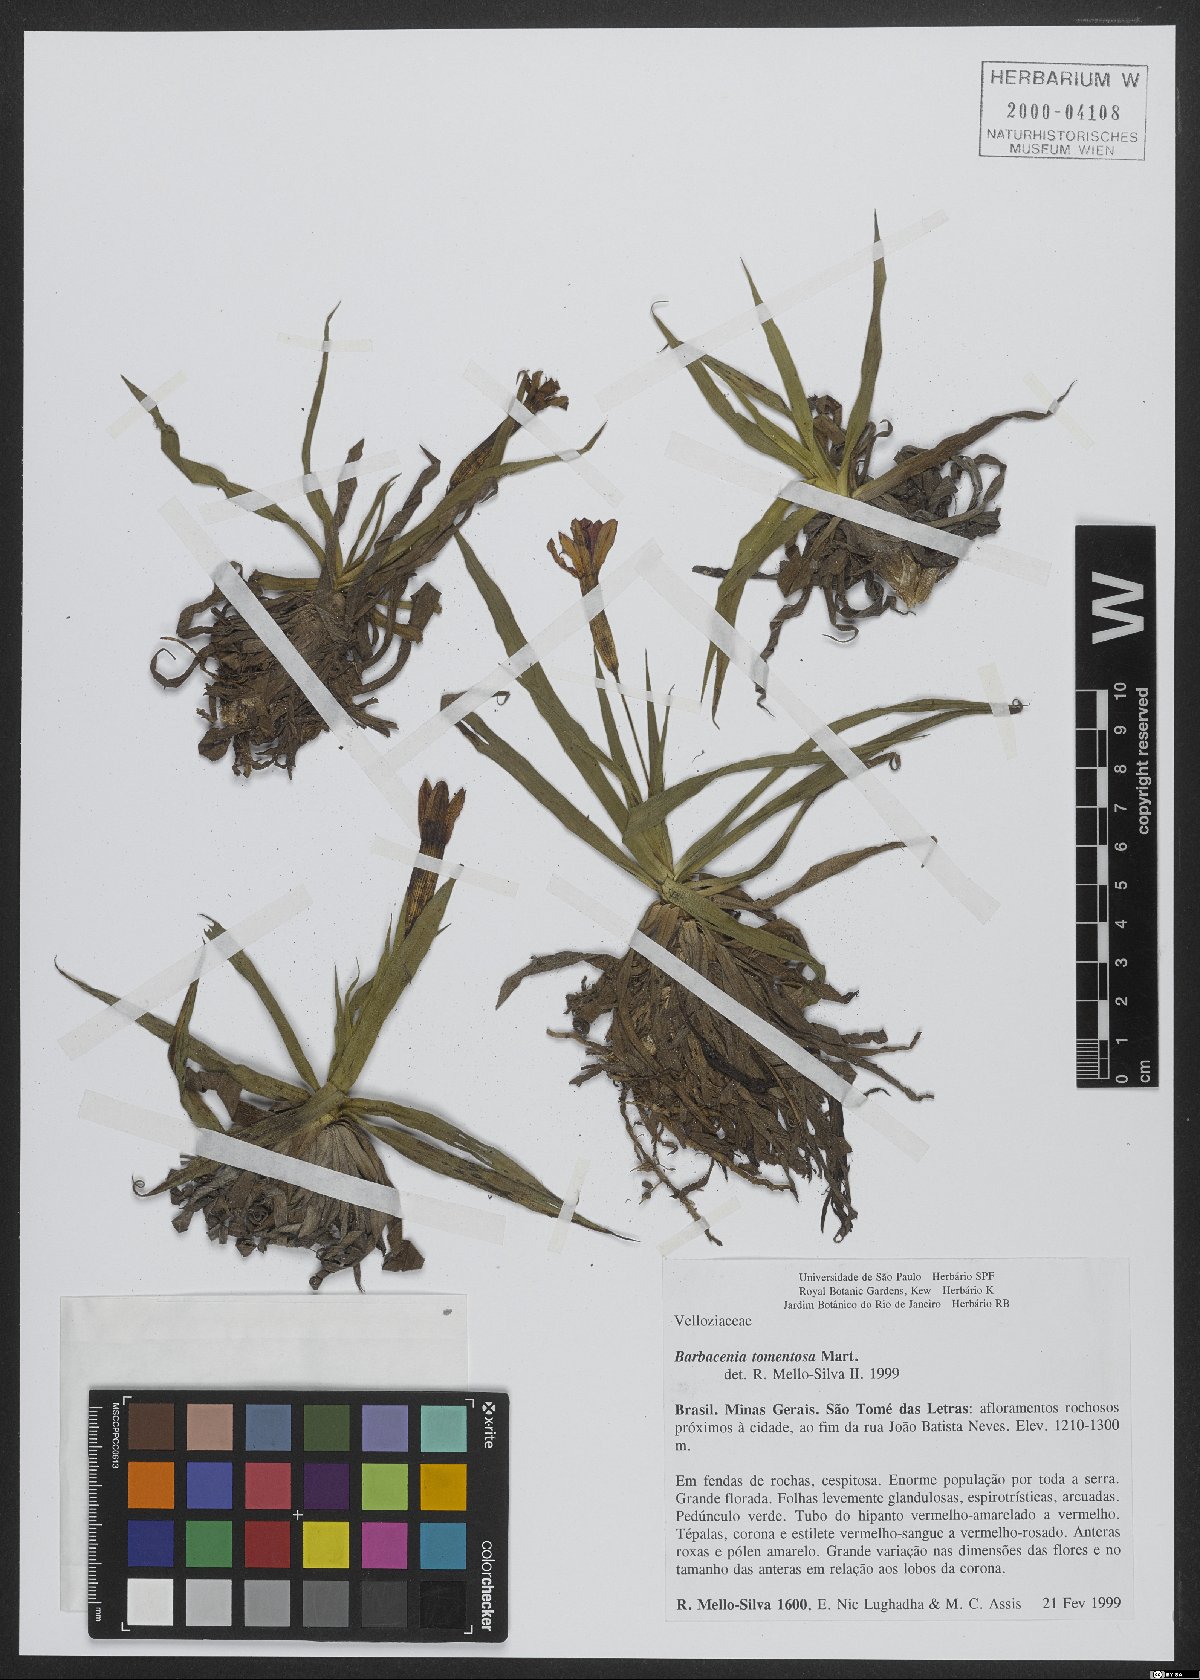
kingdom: Plantae
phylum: Tracheophyta
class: Liliopsida
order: Pandanales
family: Velloziaceae
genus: Barbacenia
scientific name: Barbacenia tomentosa
